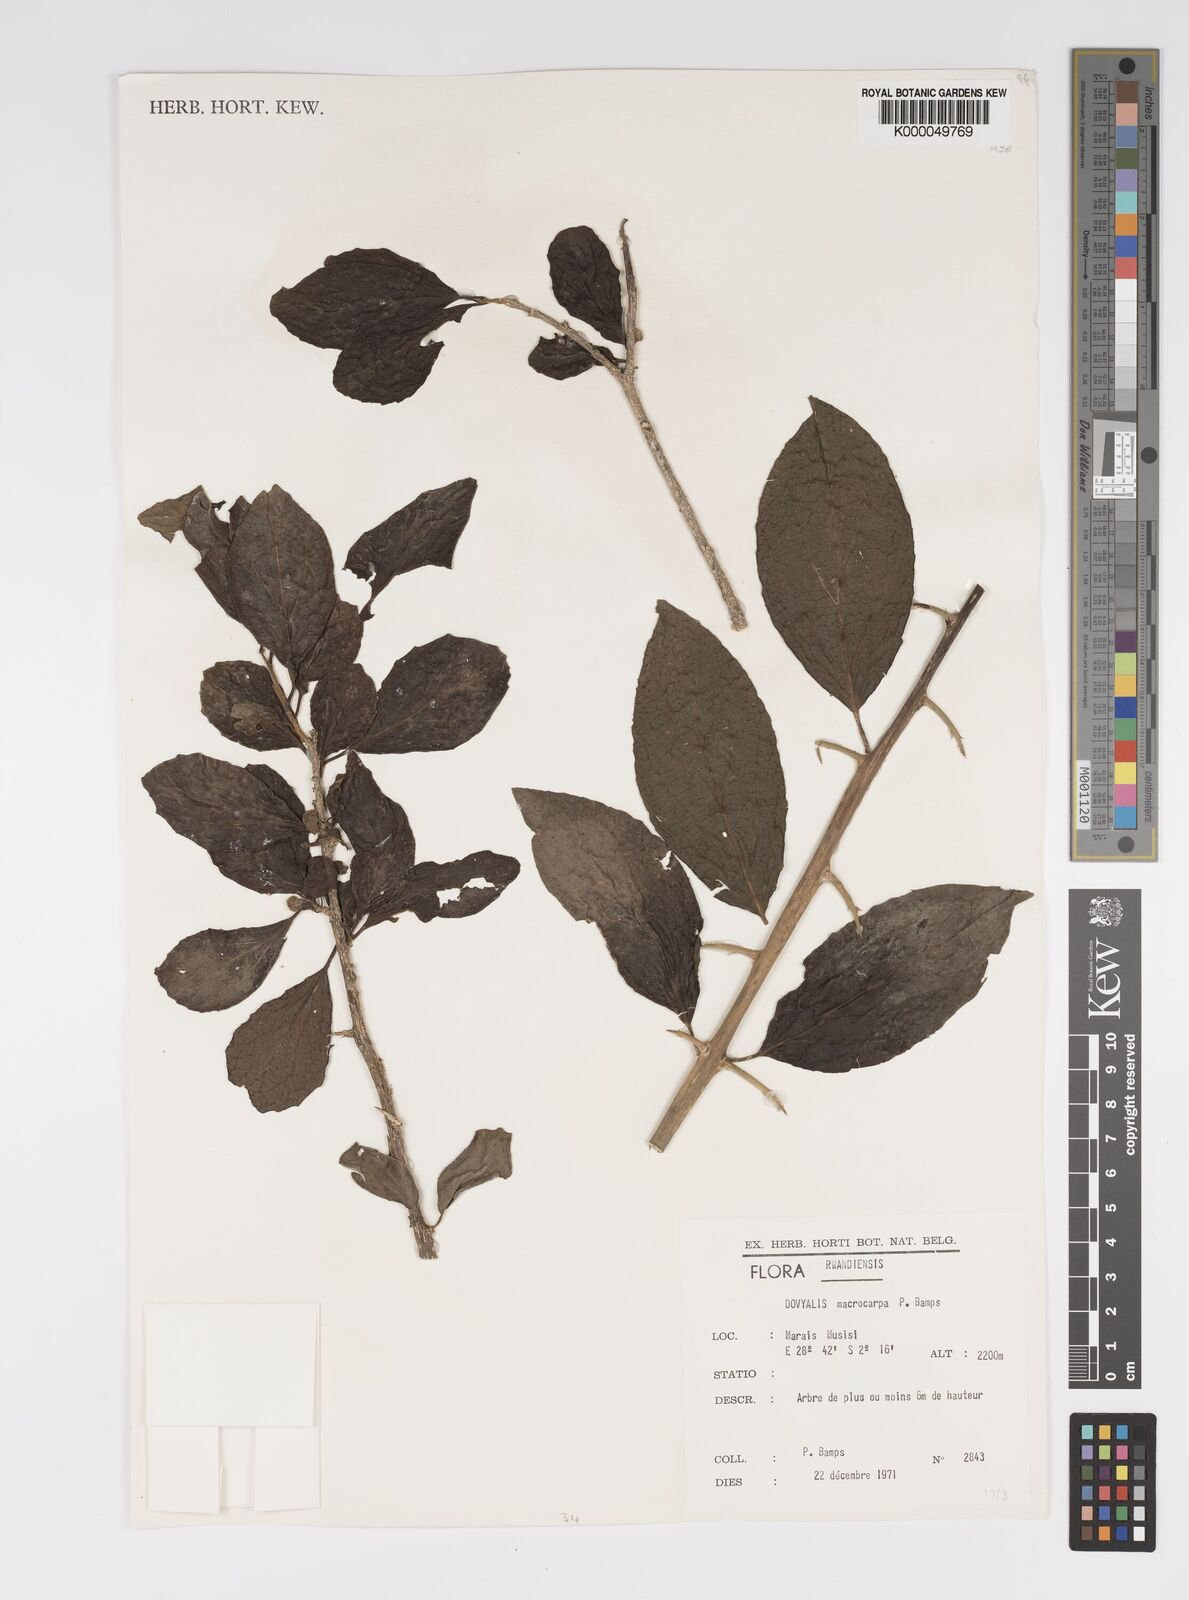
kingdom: Plantae
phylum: Tracheophyta
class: Magnoliopsida
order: Malpighiales
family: Salicaceae
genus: Dovyalis
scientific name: Dovyalis spinosissima
